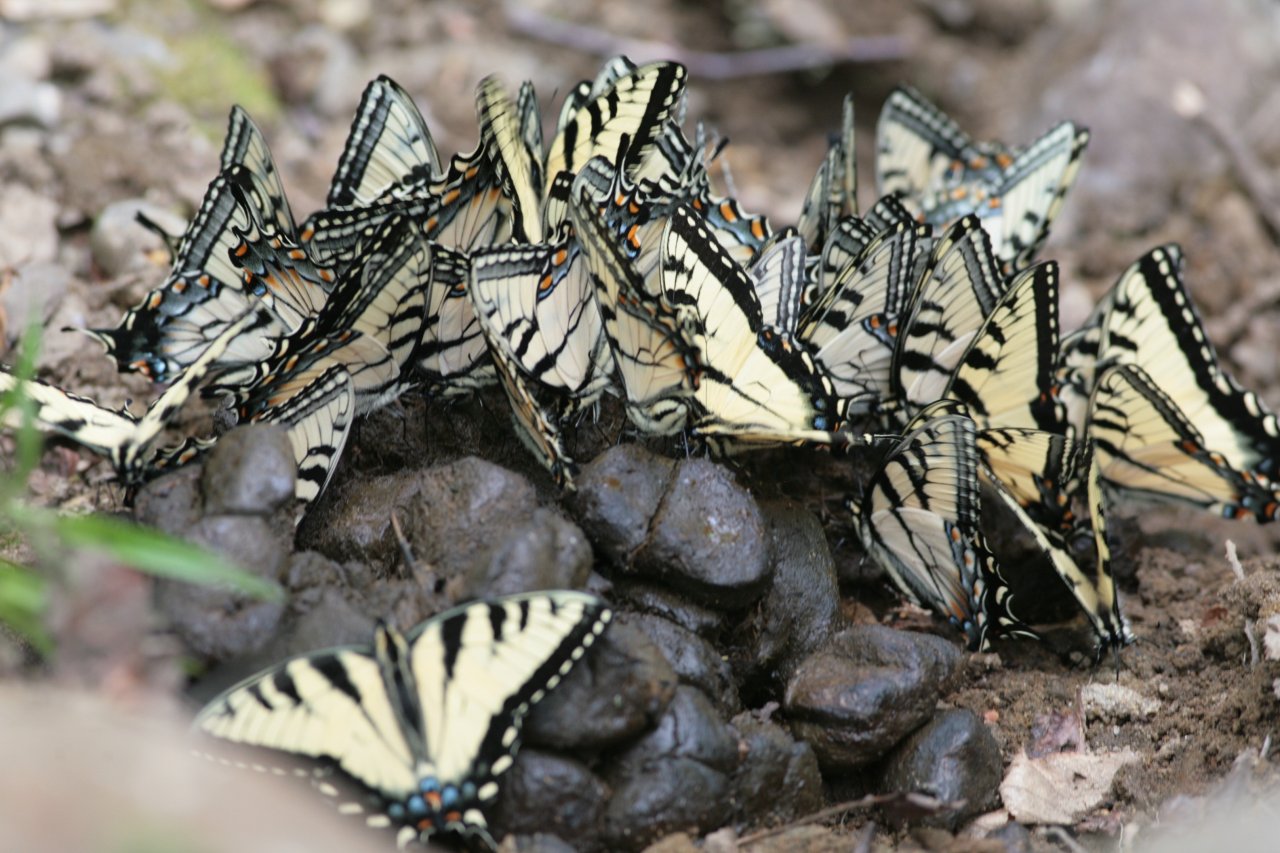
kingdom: Animalia
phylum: Arthropoda
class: Insecta
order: Lepidoptera
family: Papilionidae
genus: Pterourus
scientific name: Pterourus glaucus
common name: Eastern Tiger Swallowtail
